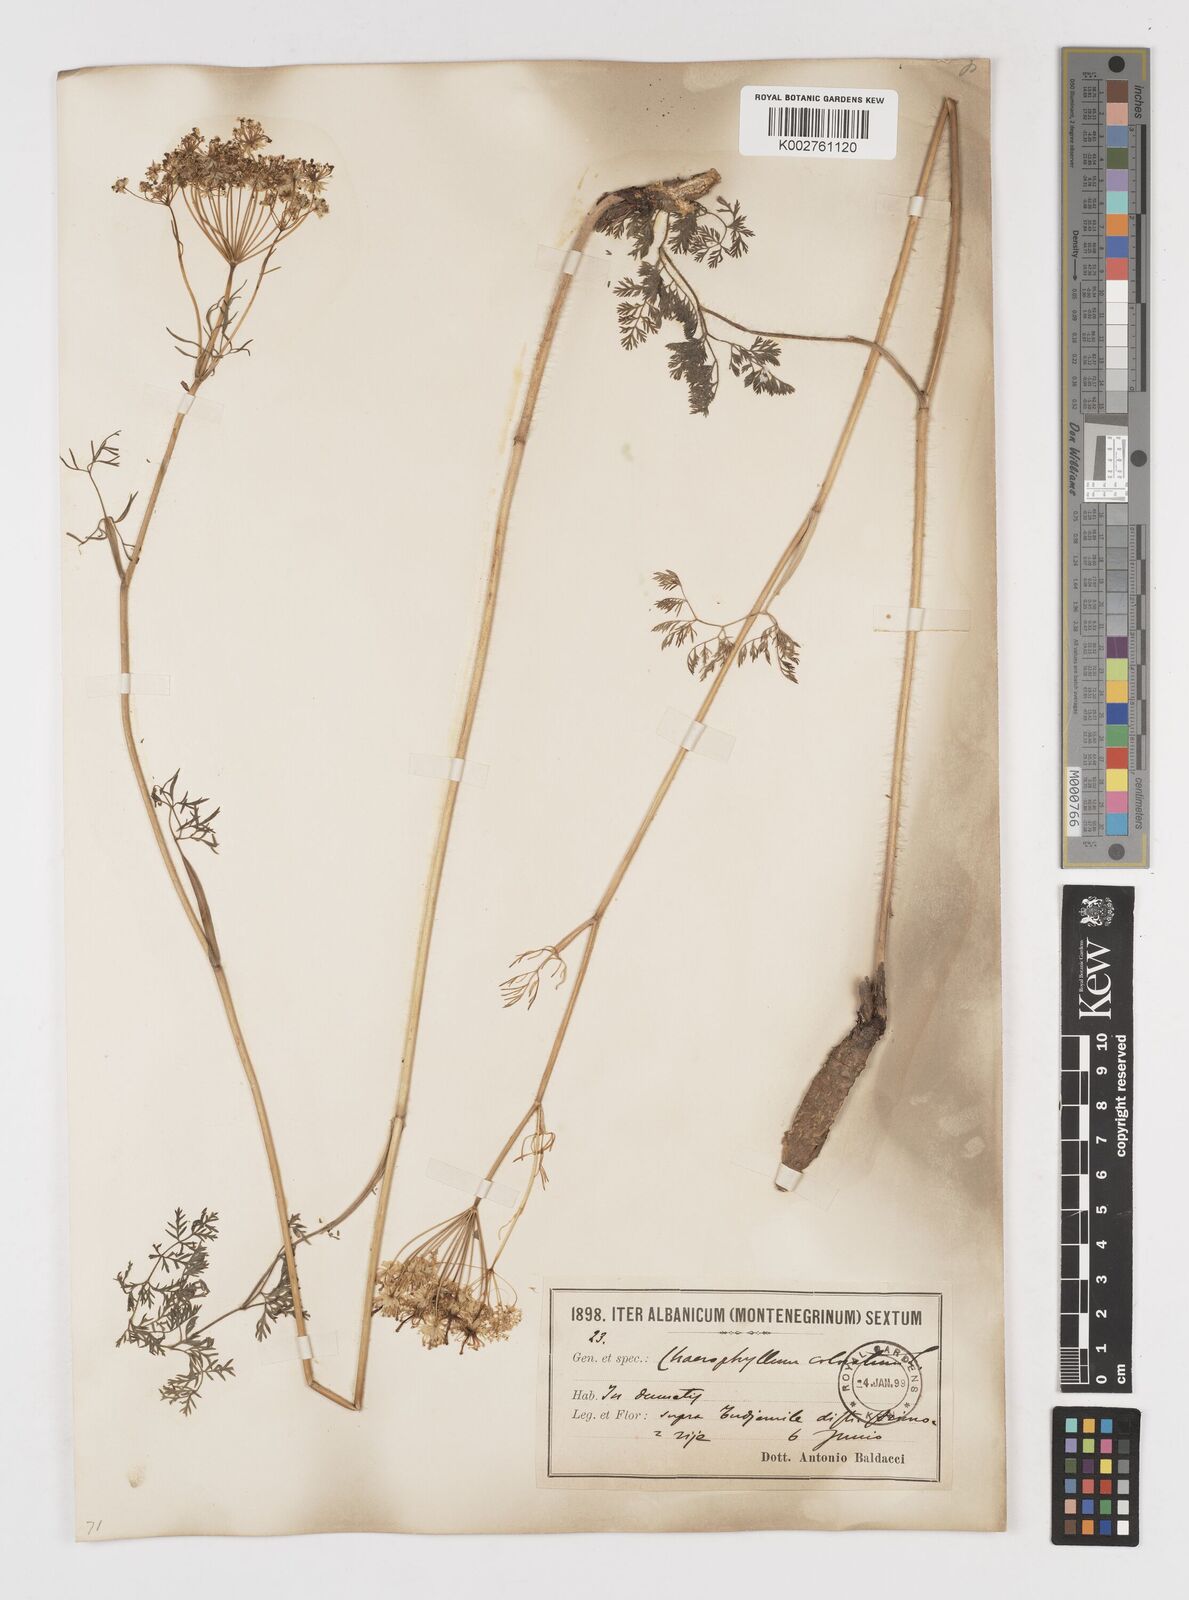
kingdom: Plantae
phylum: Tracheophyta
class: Magnoliopsida
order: Apiales
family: Apiaceae
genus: Chaerophyllum
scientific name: Chaerophyllum coloratum
